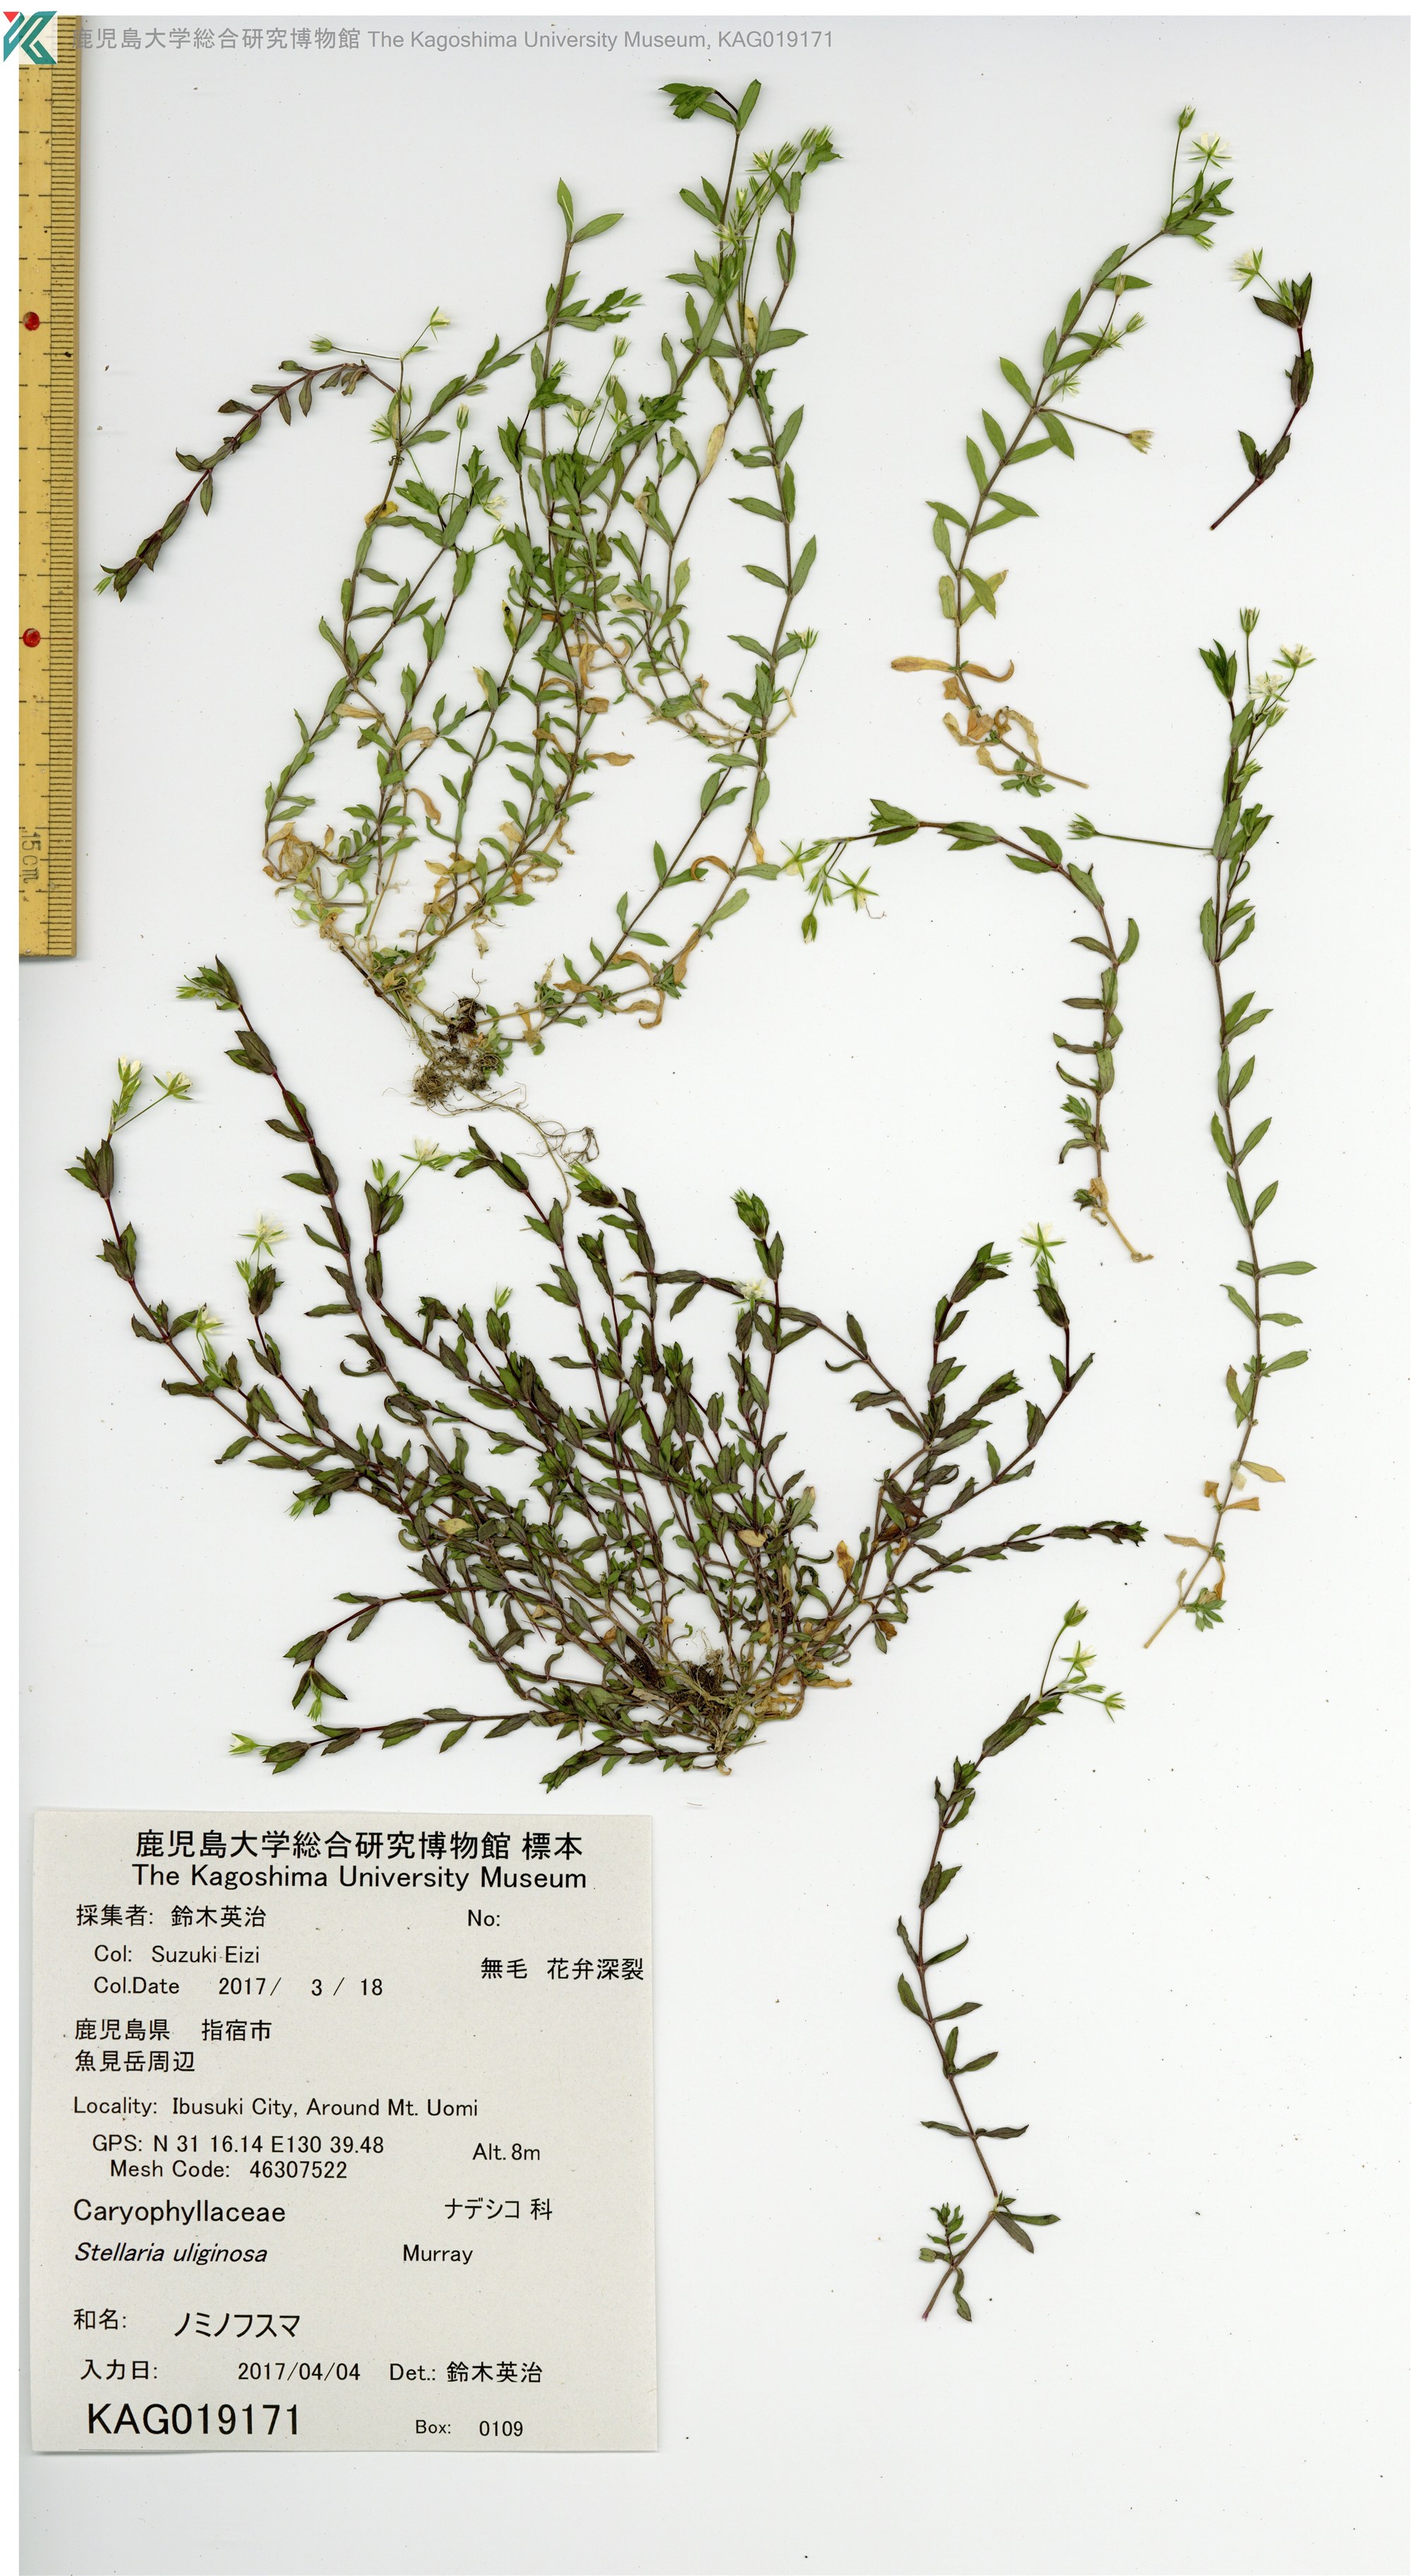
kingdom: Plantae
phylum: Tracheophyta
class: Magnoliopsida
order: Caryophyllales
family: Caryophyllaceae
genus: Stellaria
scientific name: Stellaria alsine
